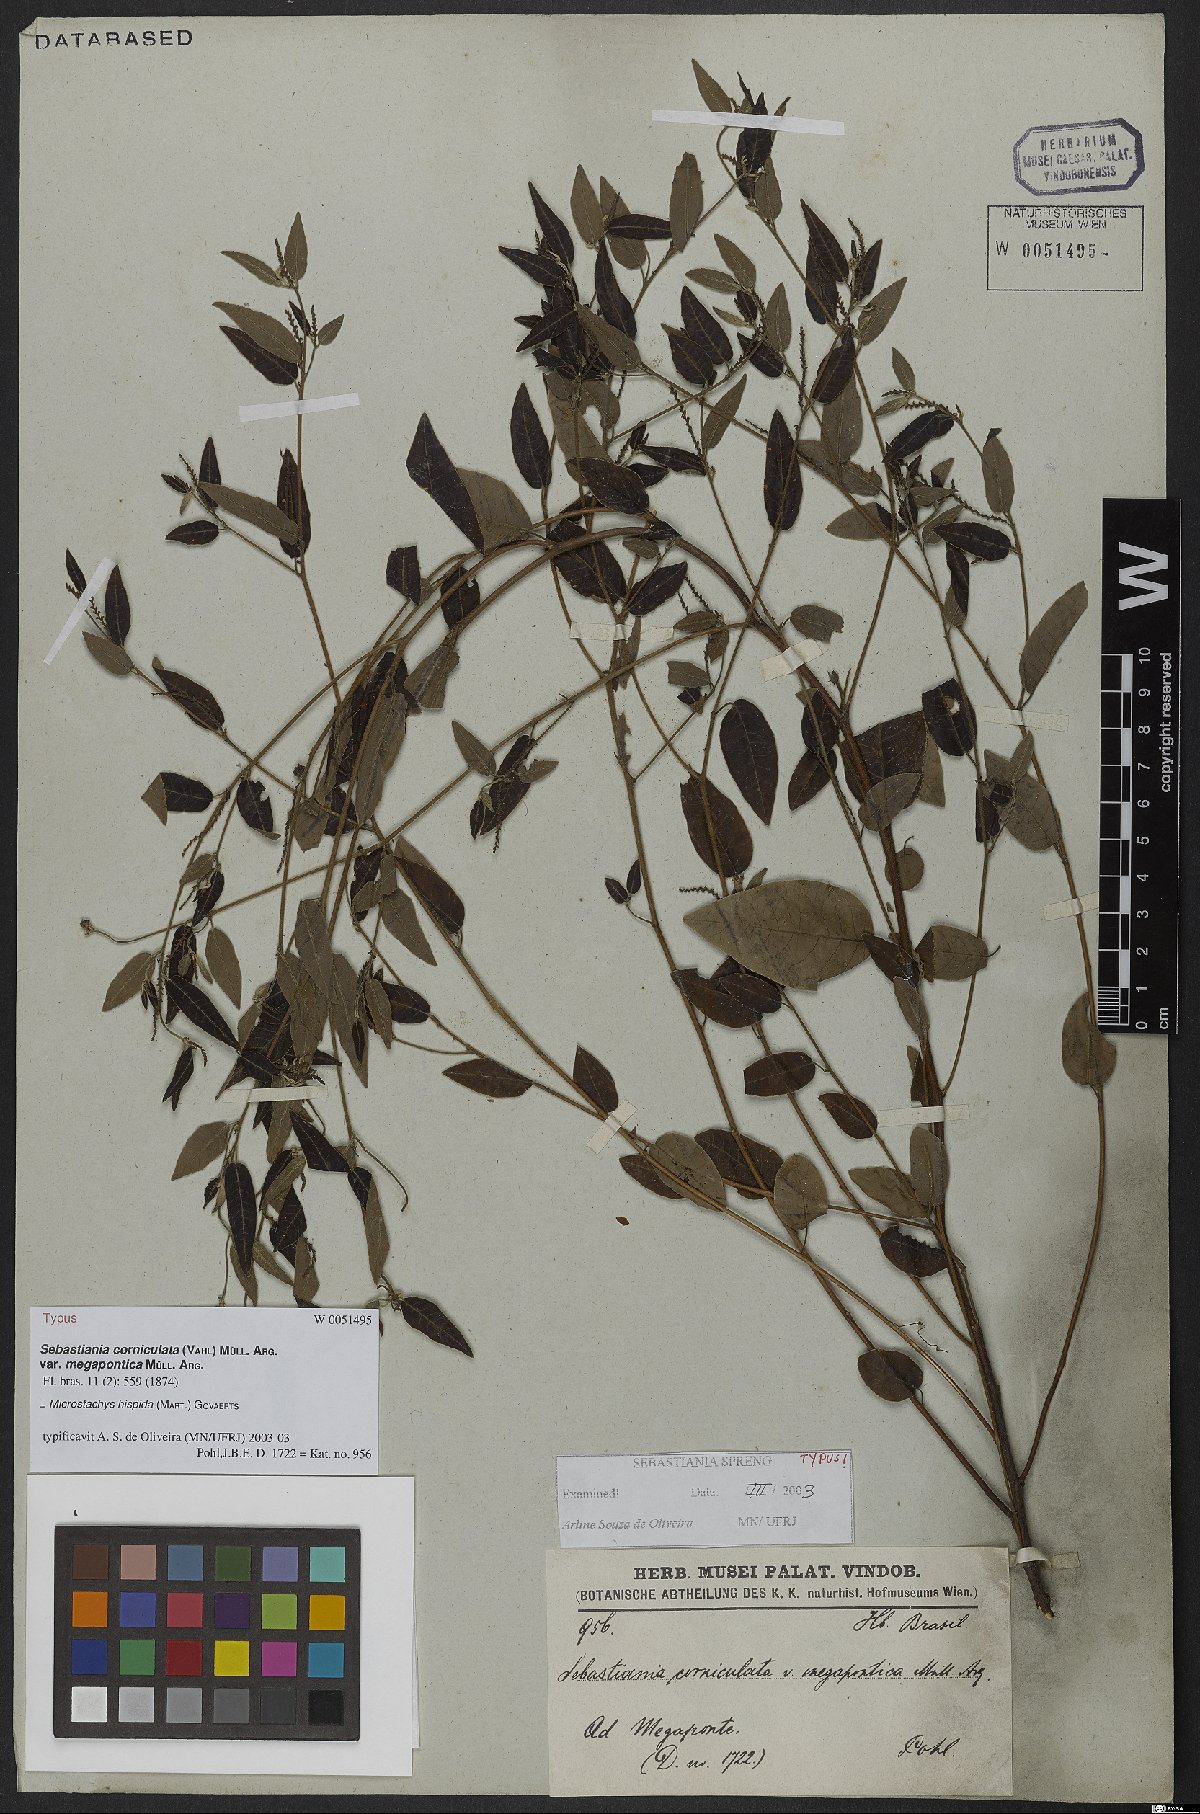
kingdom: Plantae
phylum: Tracheophyta
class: Magnoliopsida
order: Malpighiales
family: Euphorbiaceae
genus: Microstachys
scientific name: Microstachys hispida
